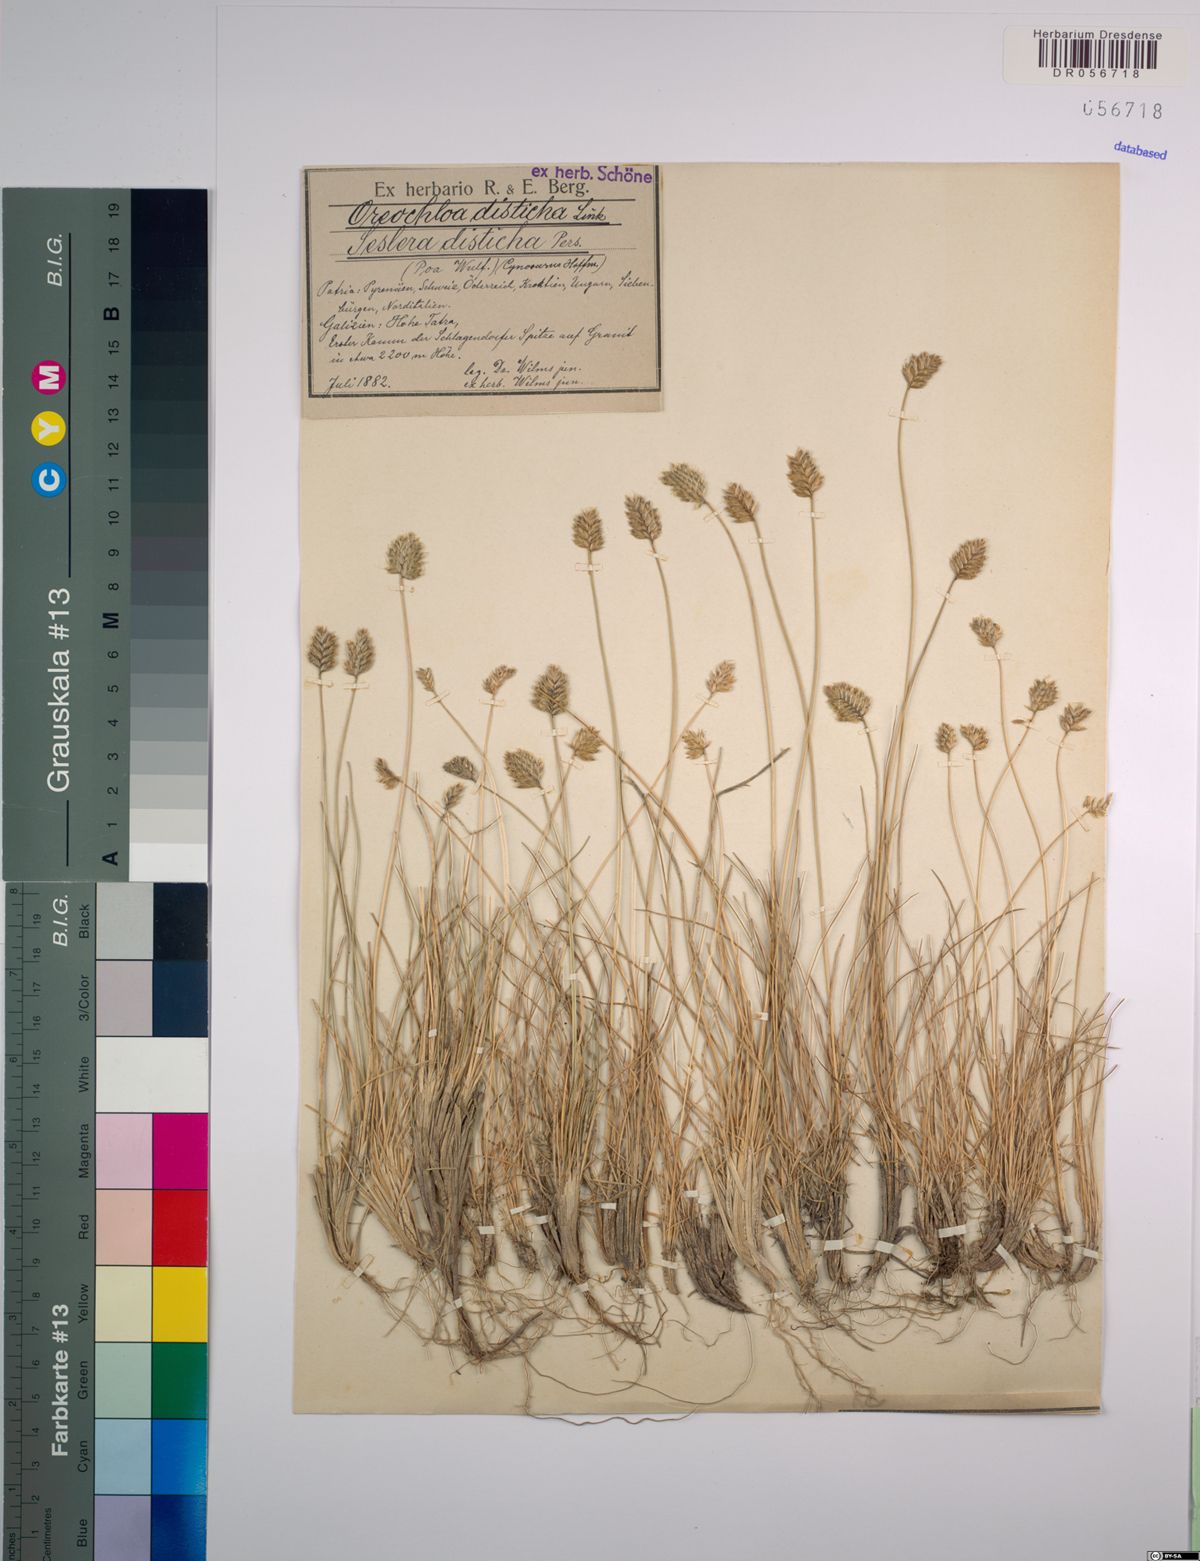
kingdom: Plantae
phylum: Tracheophyta
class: Liliopsida
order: Poales
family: Poaceae
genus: Oreochloa
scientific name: Oreochloa disticha
